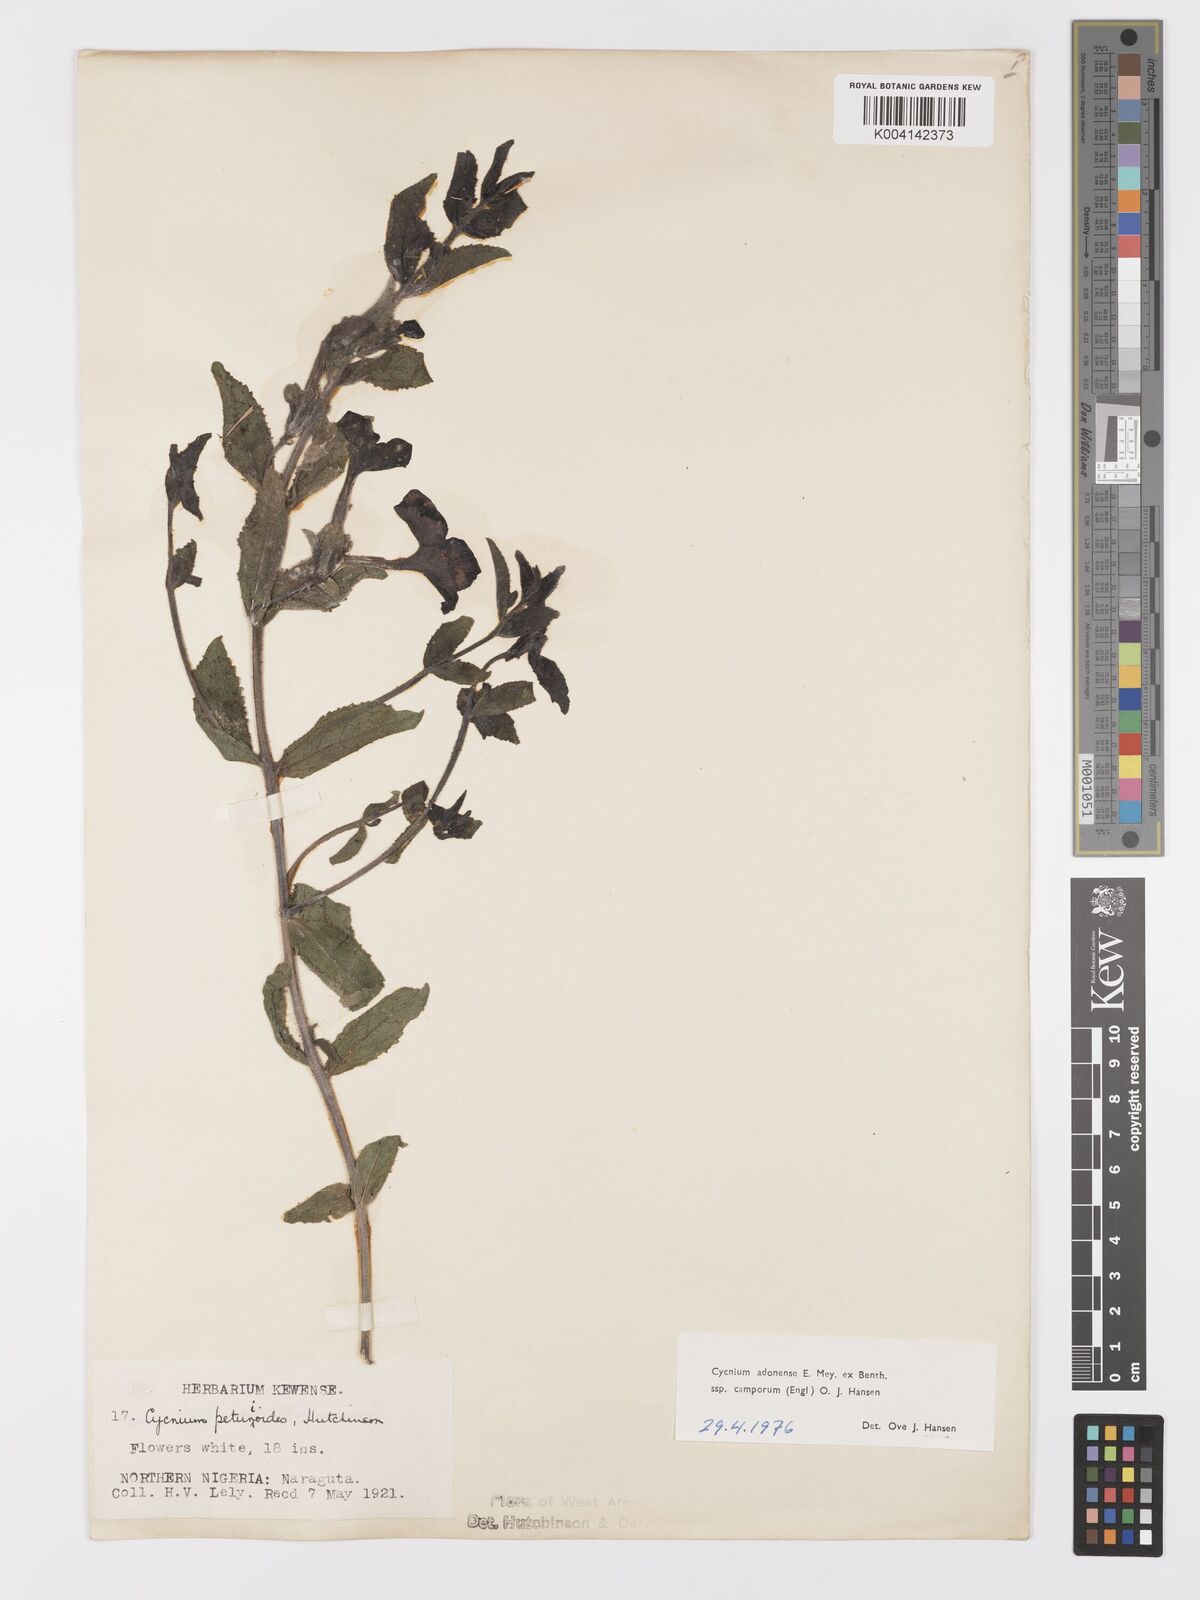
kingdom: Plantae
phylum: Tracheophyta
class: Magnoliopsida
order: Lamiales
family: Orobanchaceae
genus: Cycnium
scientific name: Cycnium adoense
